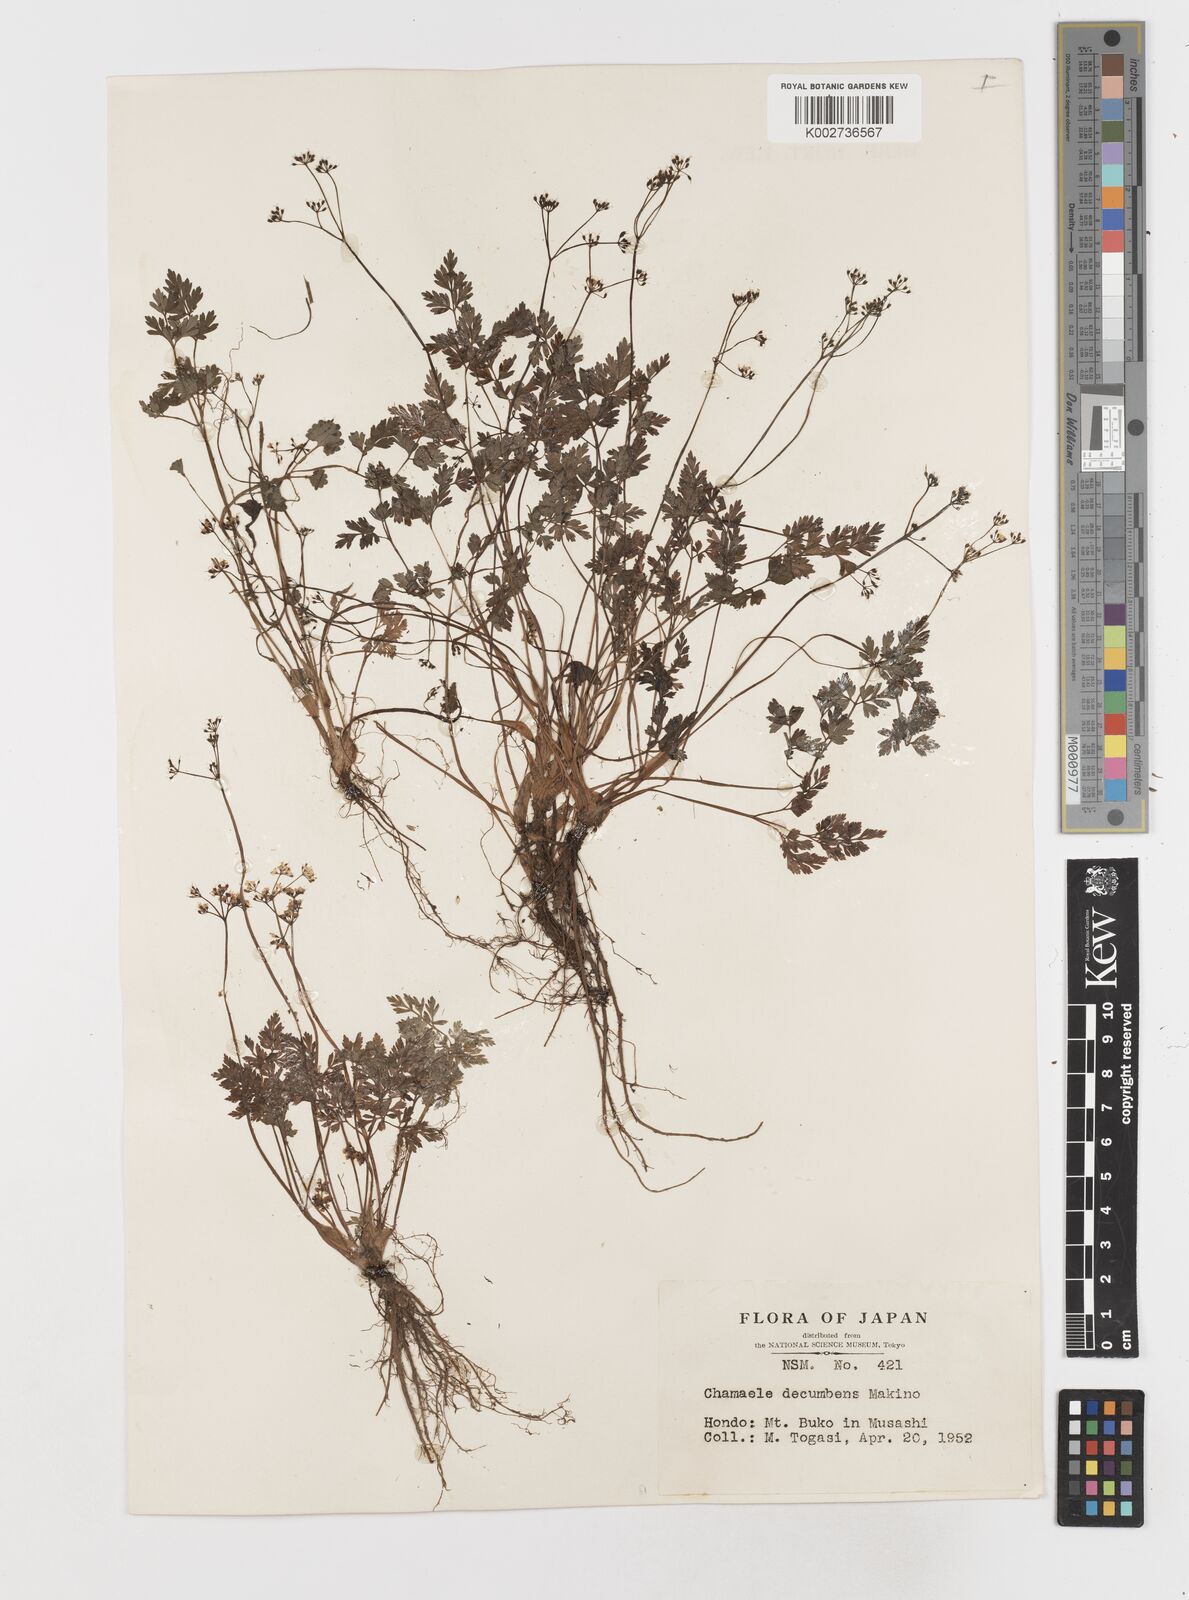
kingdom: Plantae
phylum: Tracheophyta
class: Magnoliopsida
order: Apiales
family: Apiaceae
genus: Aegopodium
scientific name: Aegopodium decumbens
